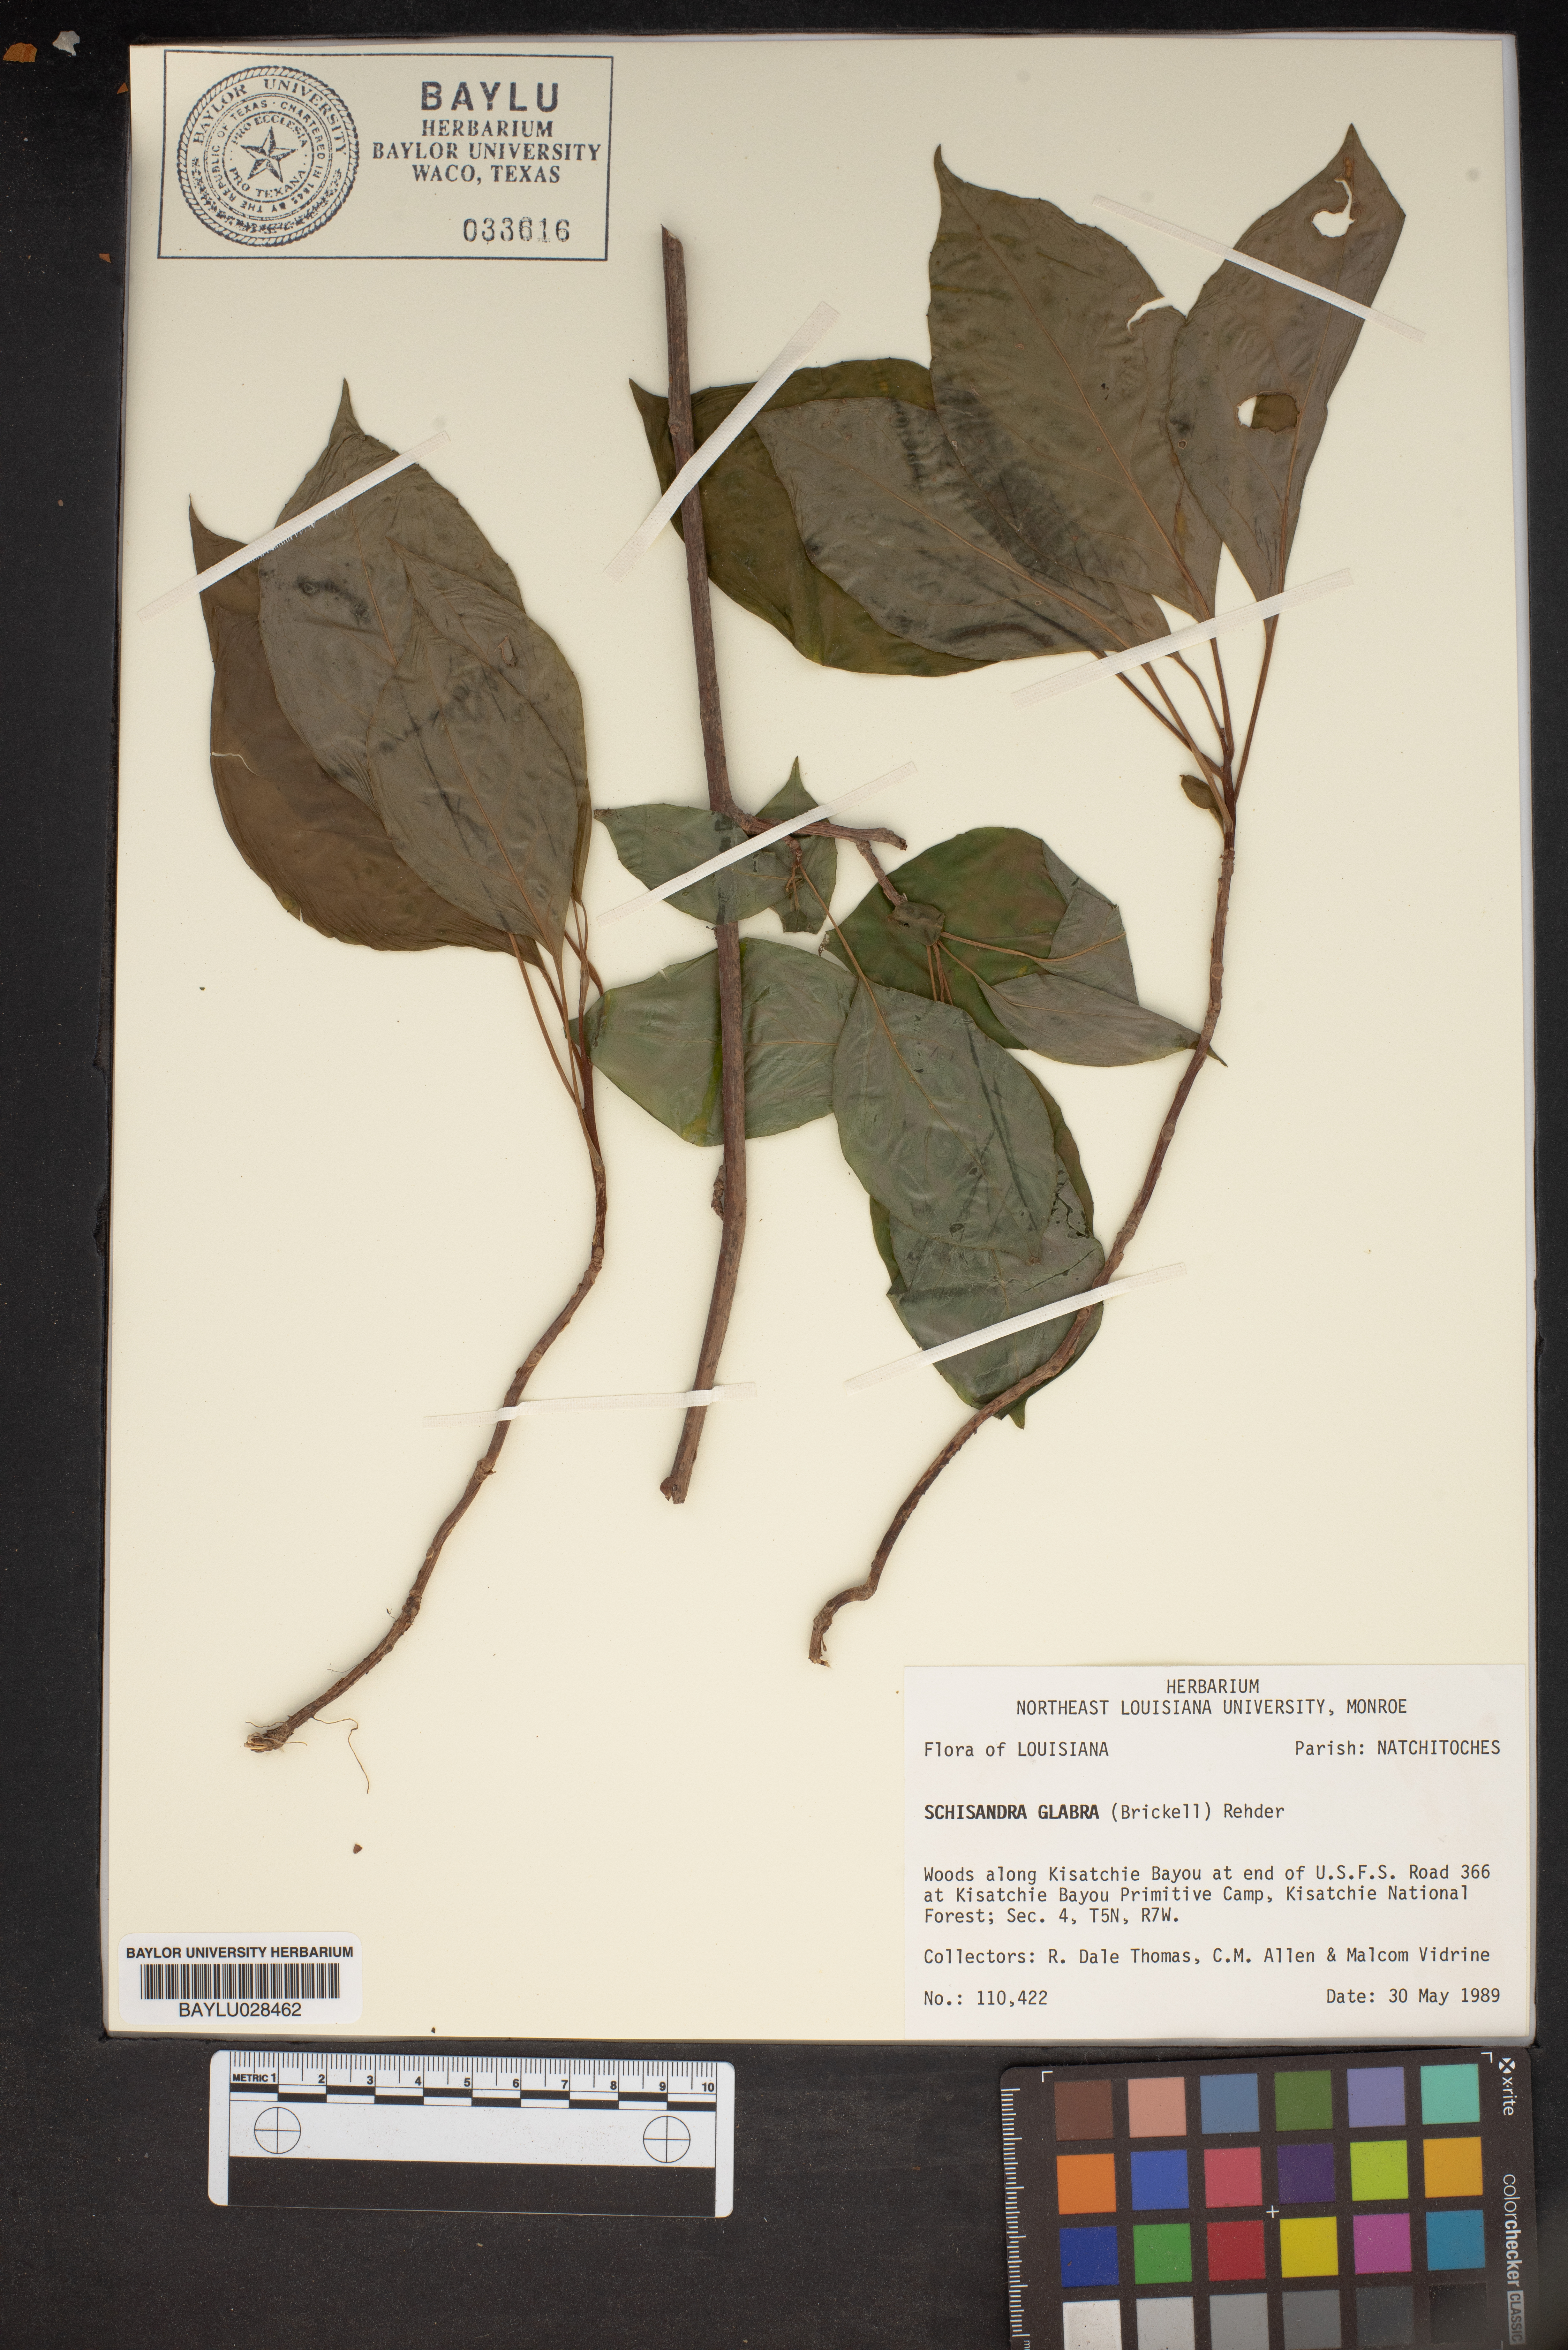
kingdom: Plantae
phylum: Tracheophyta
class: Magnoliopsida
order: Austrobaileyales
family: Schisandraceae
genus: Schisandra
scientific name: Schisandra glabra
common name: Bay-starvine
